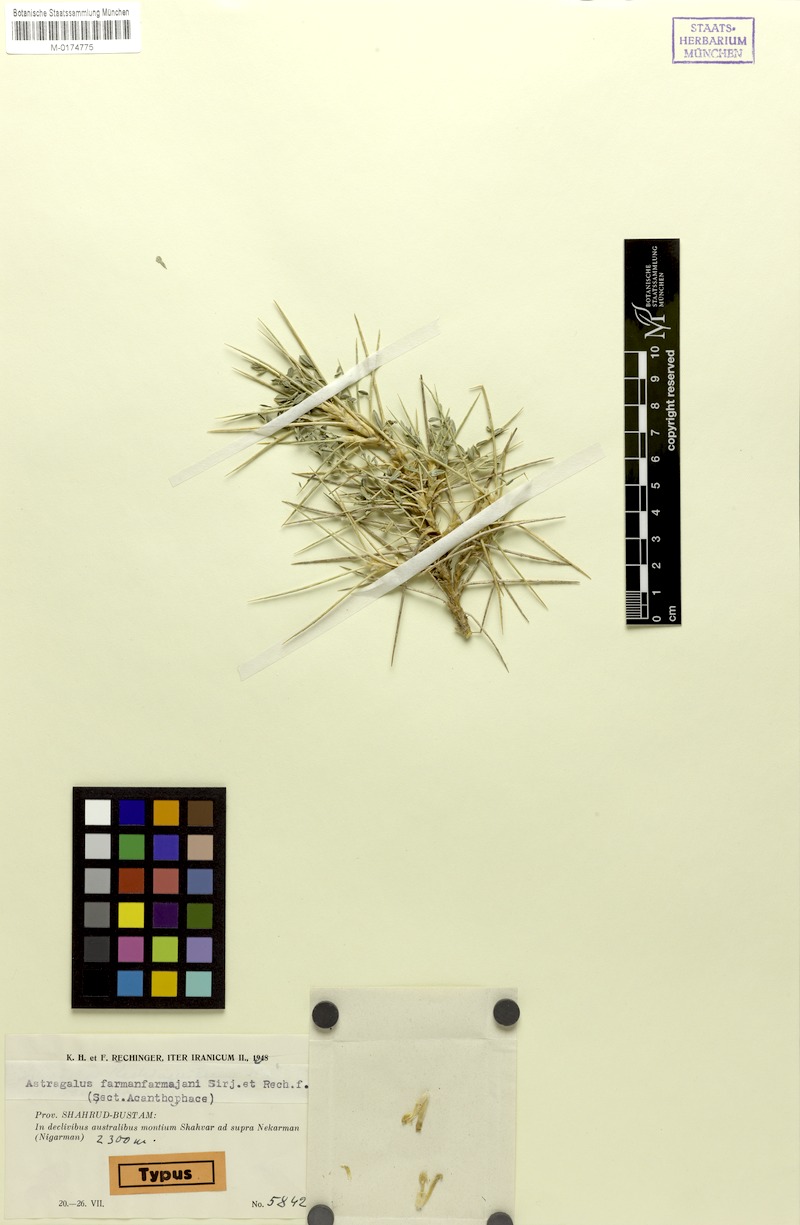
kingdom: Plantae
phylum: Tracheophyta
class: Magnoliopsida
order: Fabales
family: Fabaceae
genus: Astragalus
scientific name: Astragalus ochrochlorus
